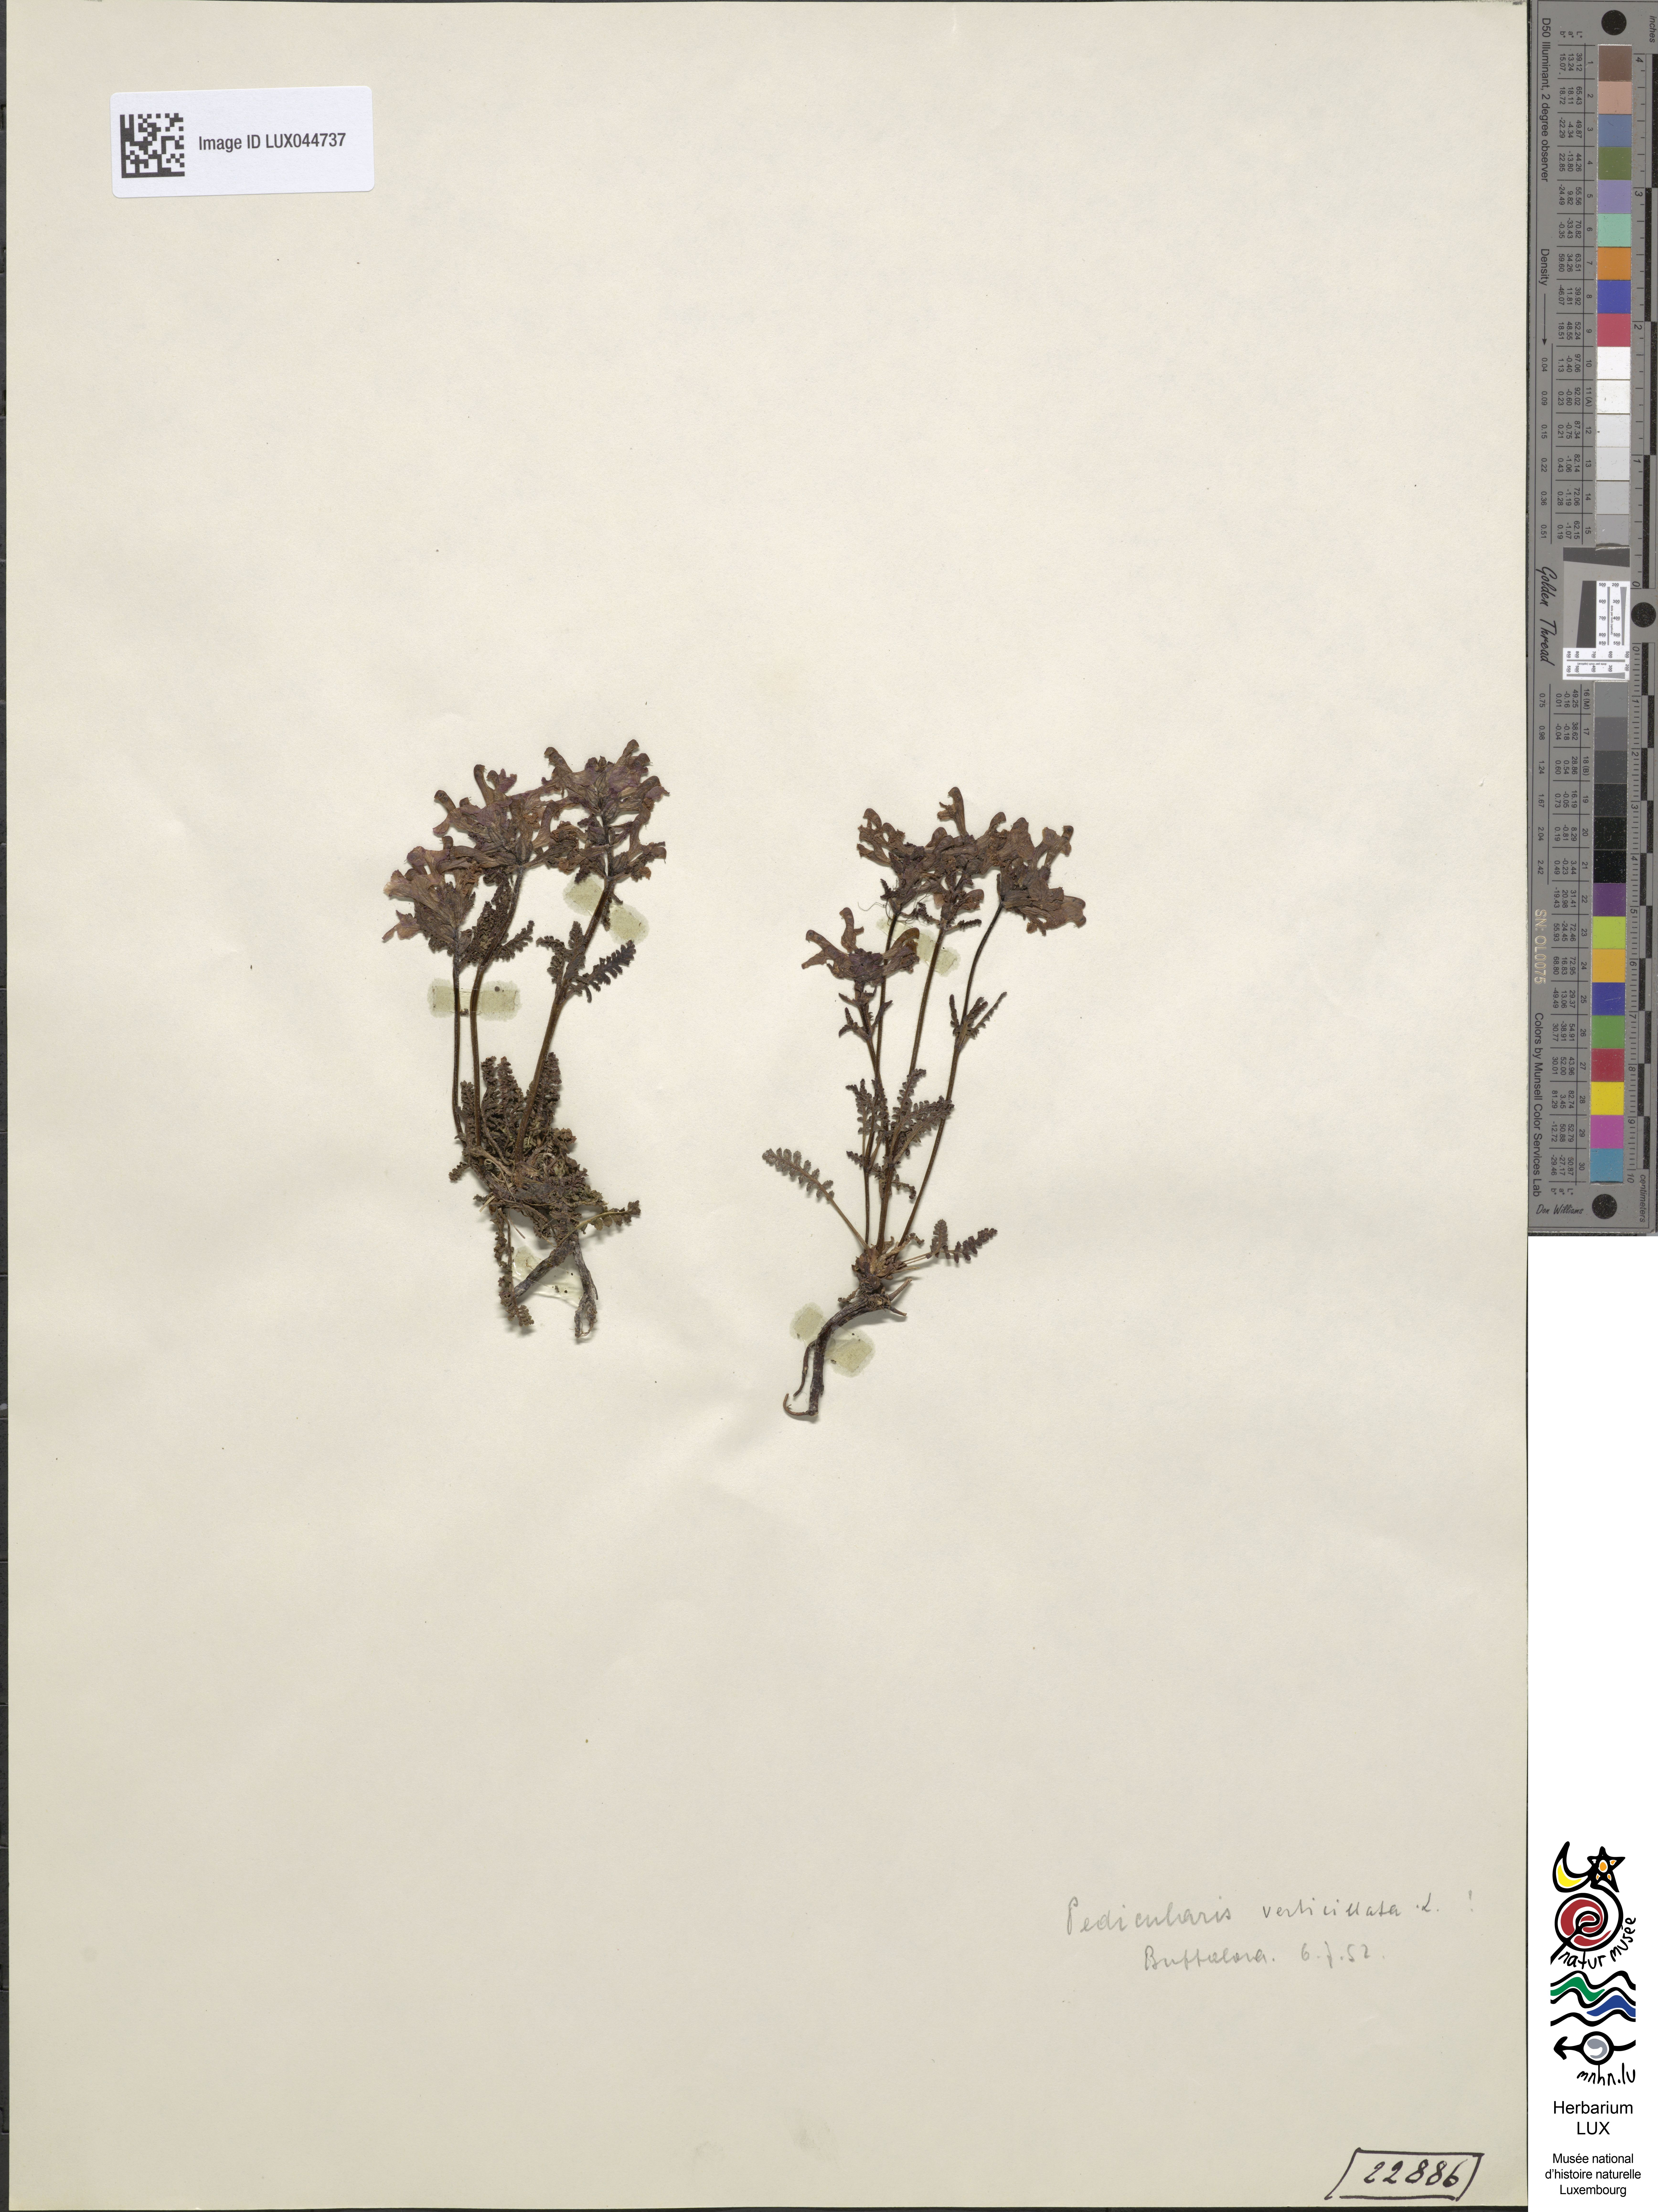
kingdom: Plantae
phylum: Tracheophyta
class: Magnoliopsida
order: Lamiales
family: Orobanchaceae
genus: Pedicularis
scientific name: Pedicularis verticillata
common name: Whorled lousewort
